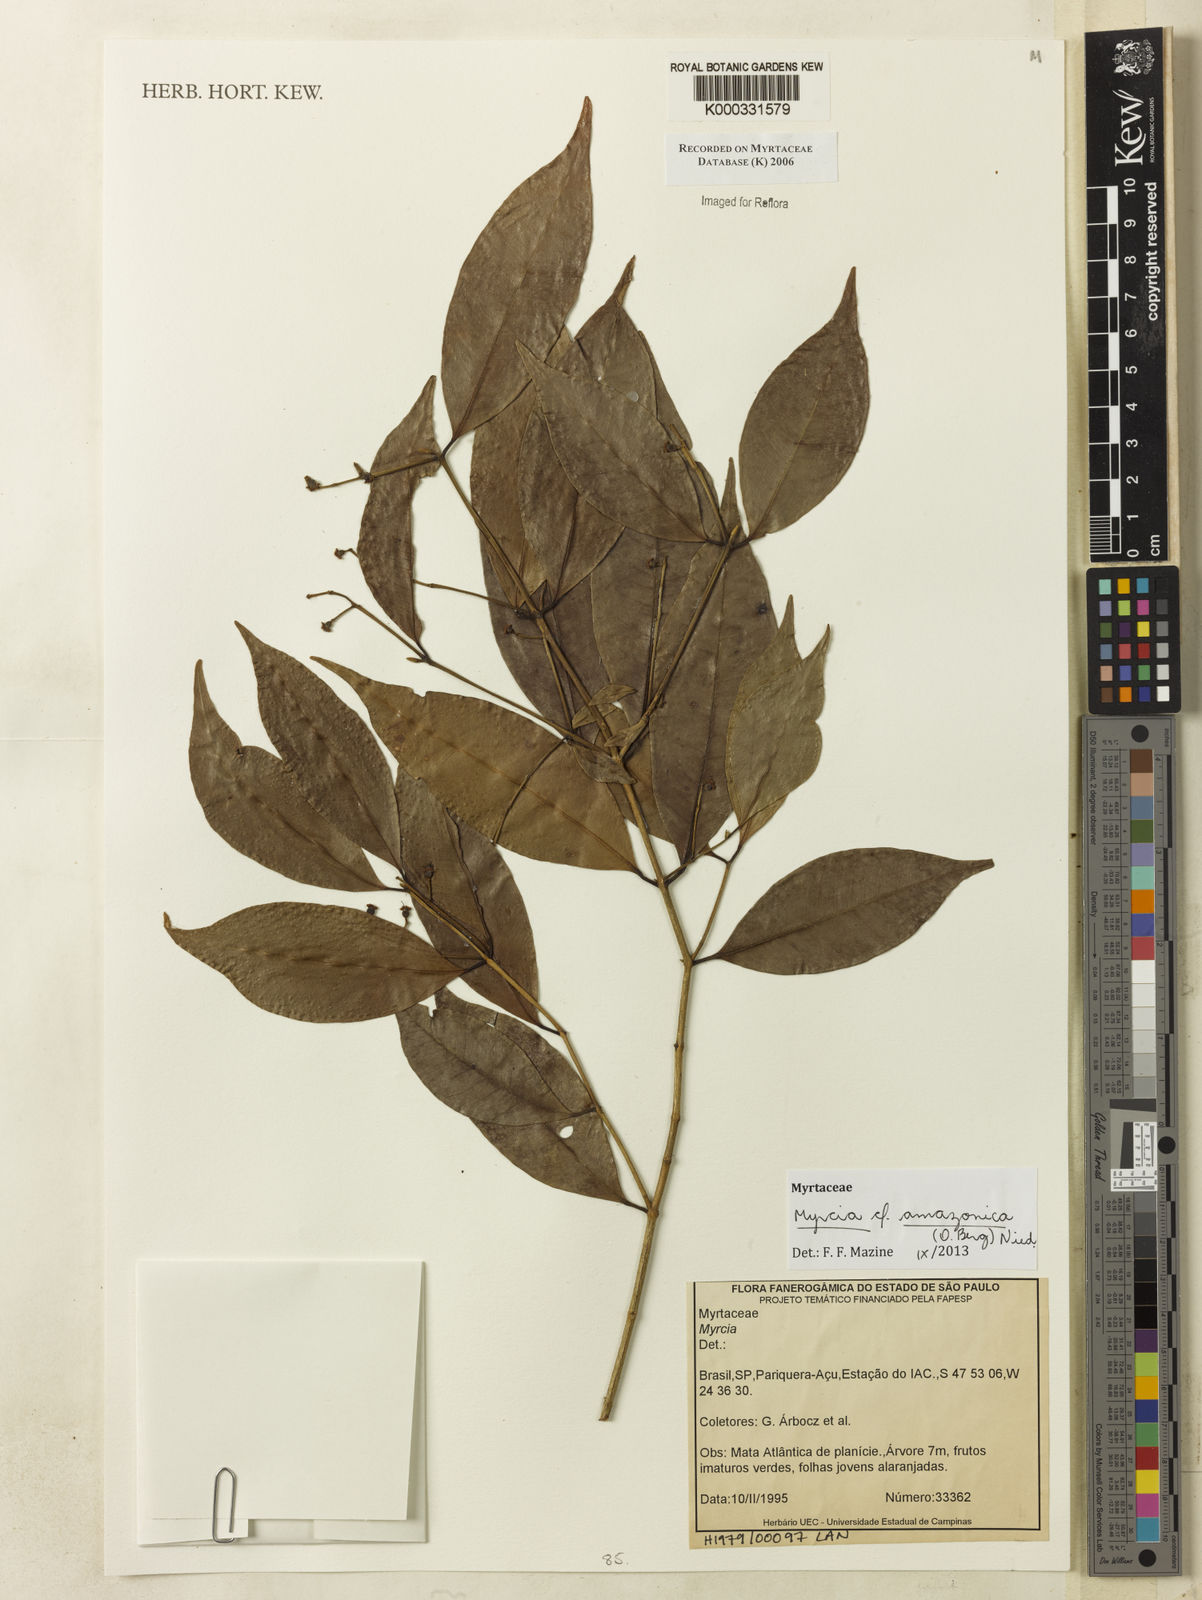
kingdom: Plantae
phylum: Tracheophyta
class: Magnoliopsida
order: Myrtales
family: Myrtaceae
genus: Myrcia
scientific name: Myrcia
